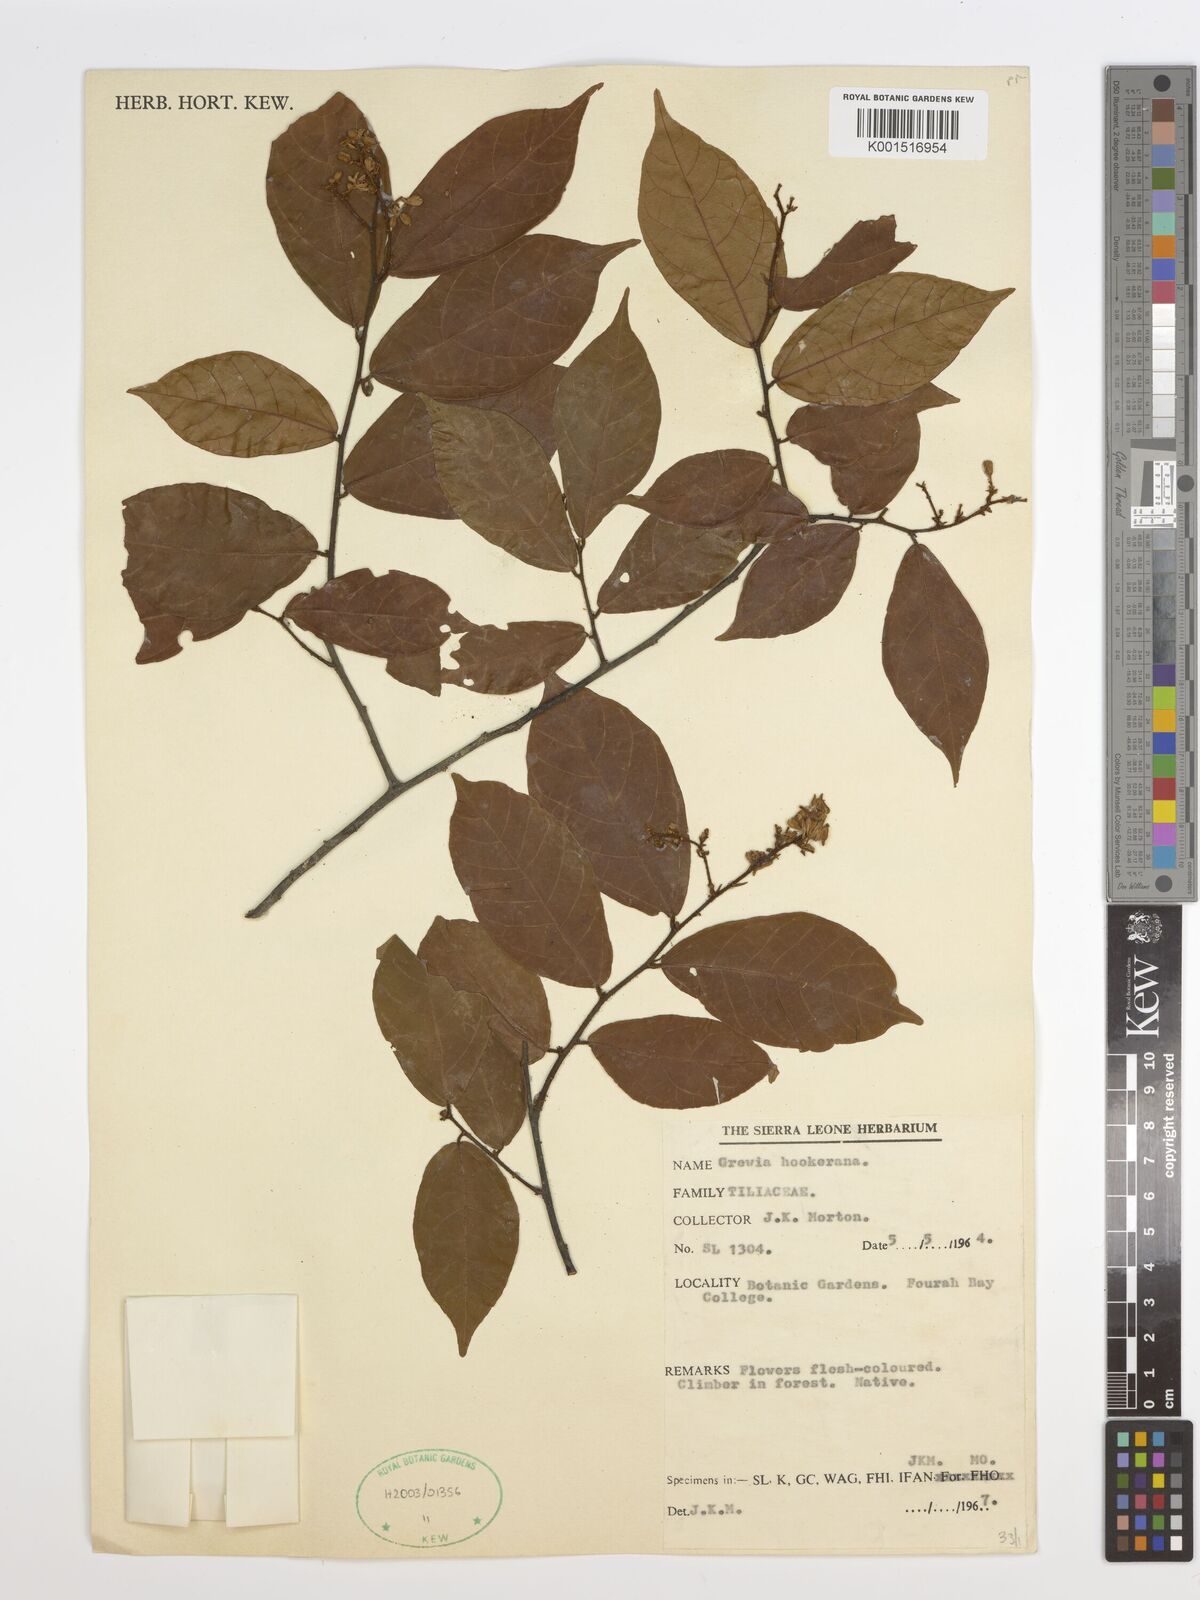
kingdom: Plantae
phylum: Tracheophyta
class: Magnoliopsida
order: Malvales
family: Malvaceae
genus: Microcos
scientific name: Microcos africana
